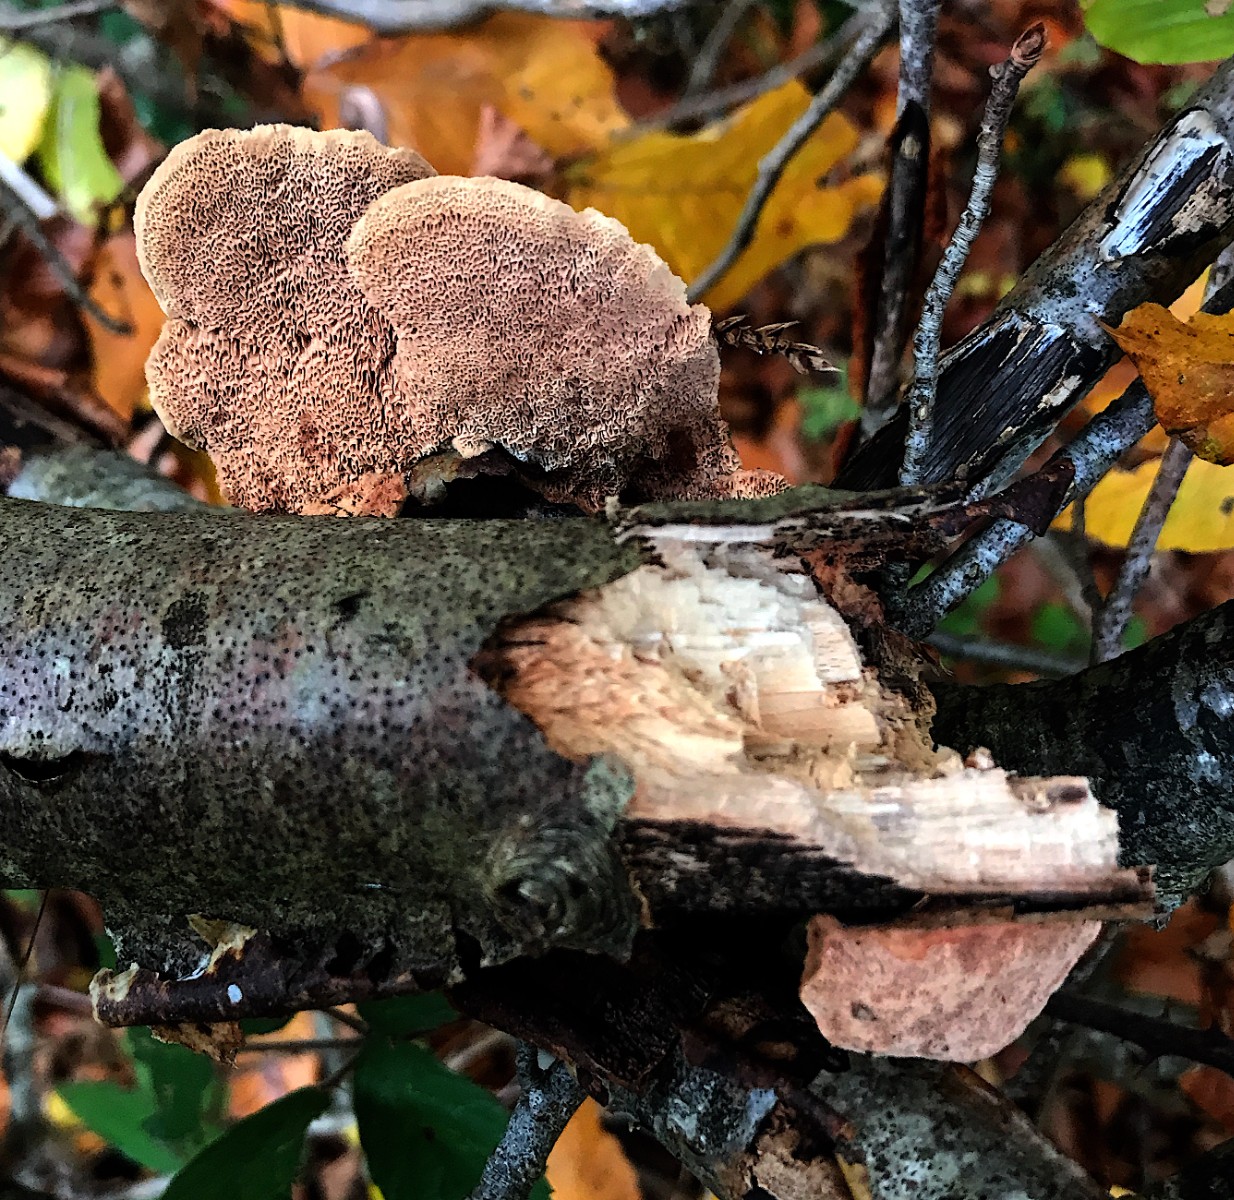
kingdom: Fungi
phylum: Basidiomycota
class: Agaricomycetes
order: Polyporales
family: Phanerochaetaceae
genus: Hapalopilus
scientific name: Hapalopilus rutilans
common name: rødlig okkerporesvamp
